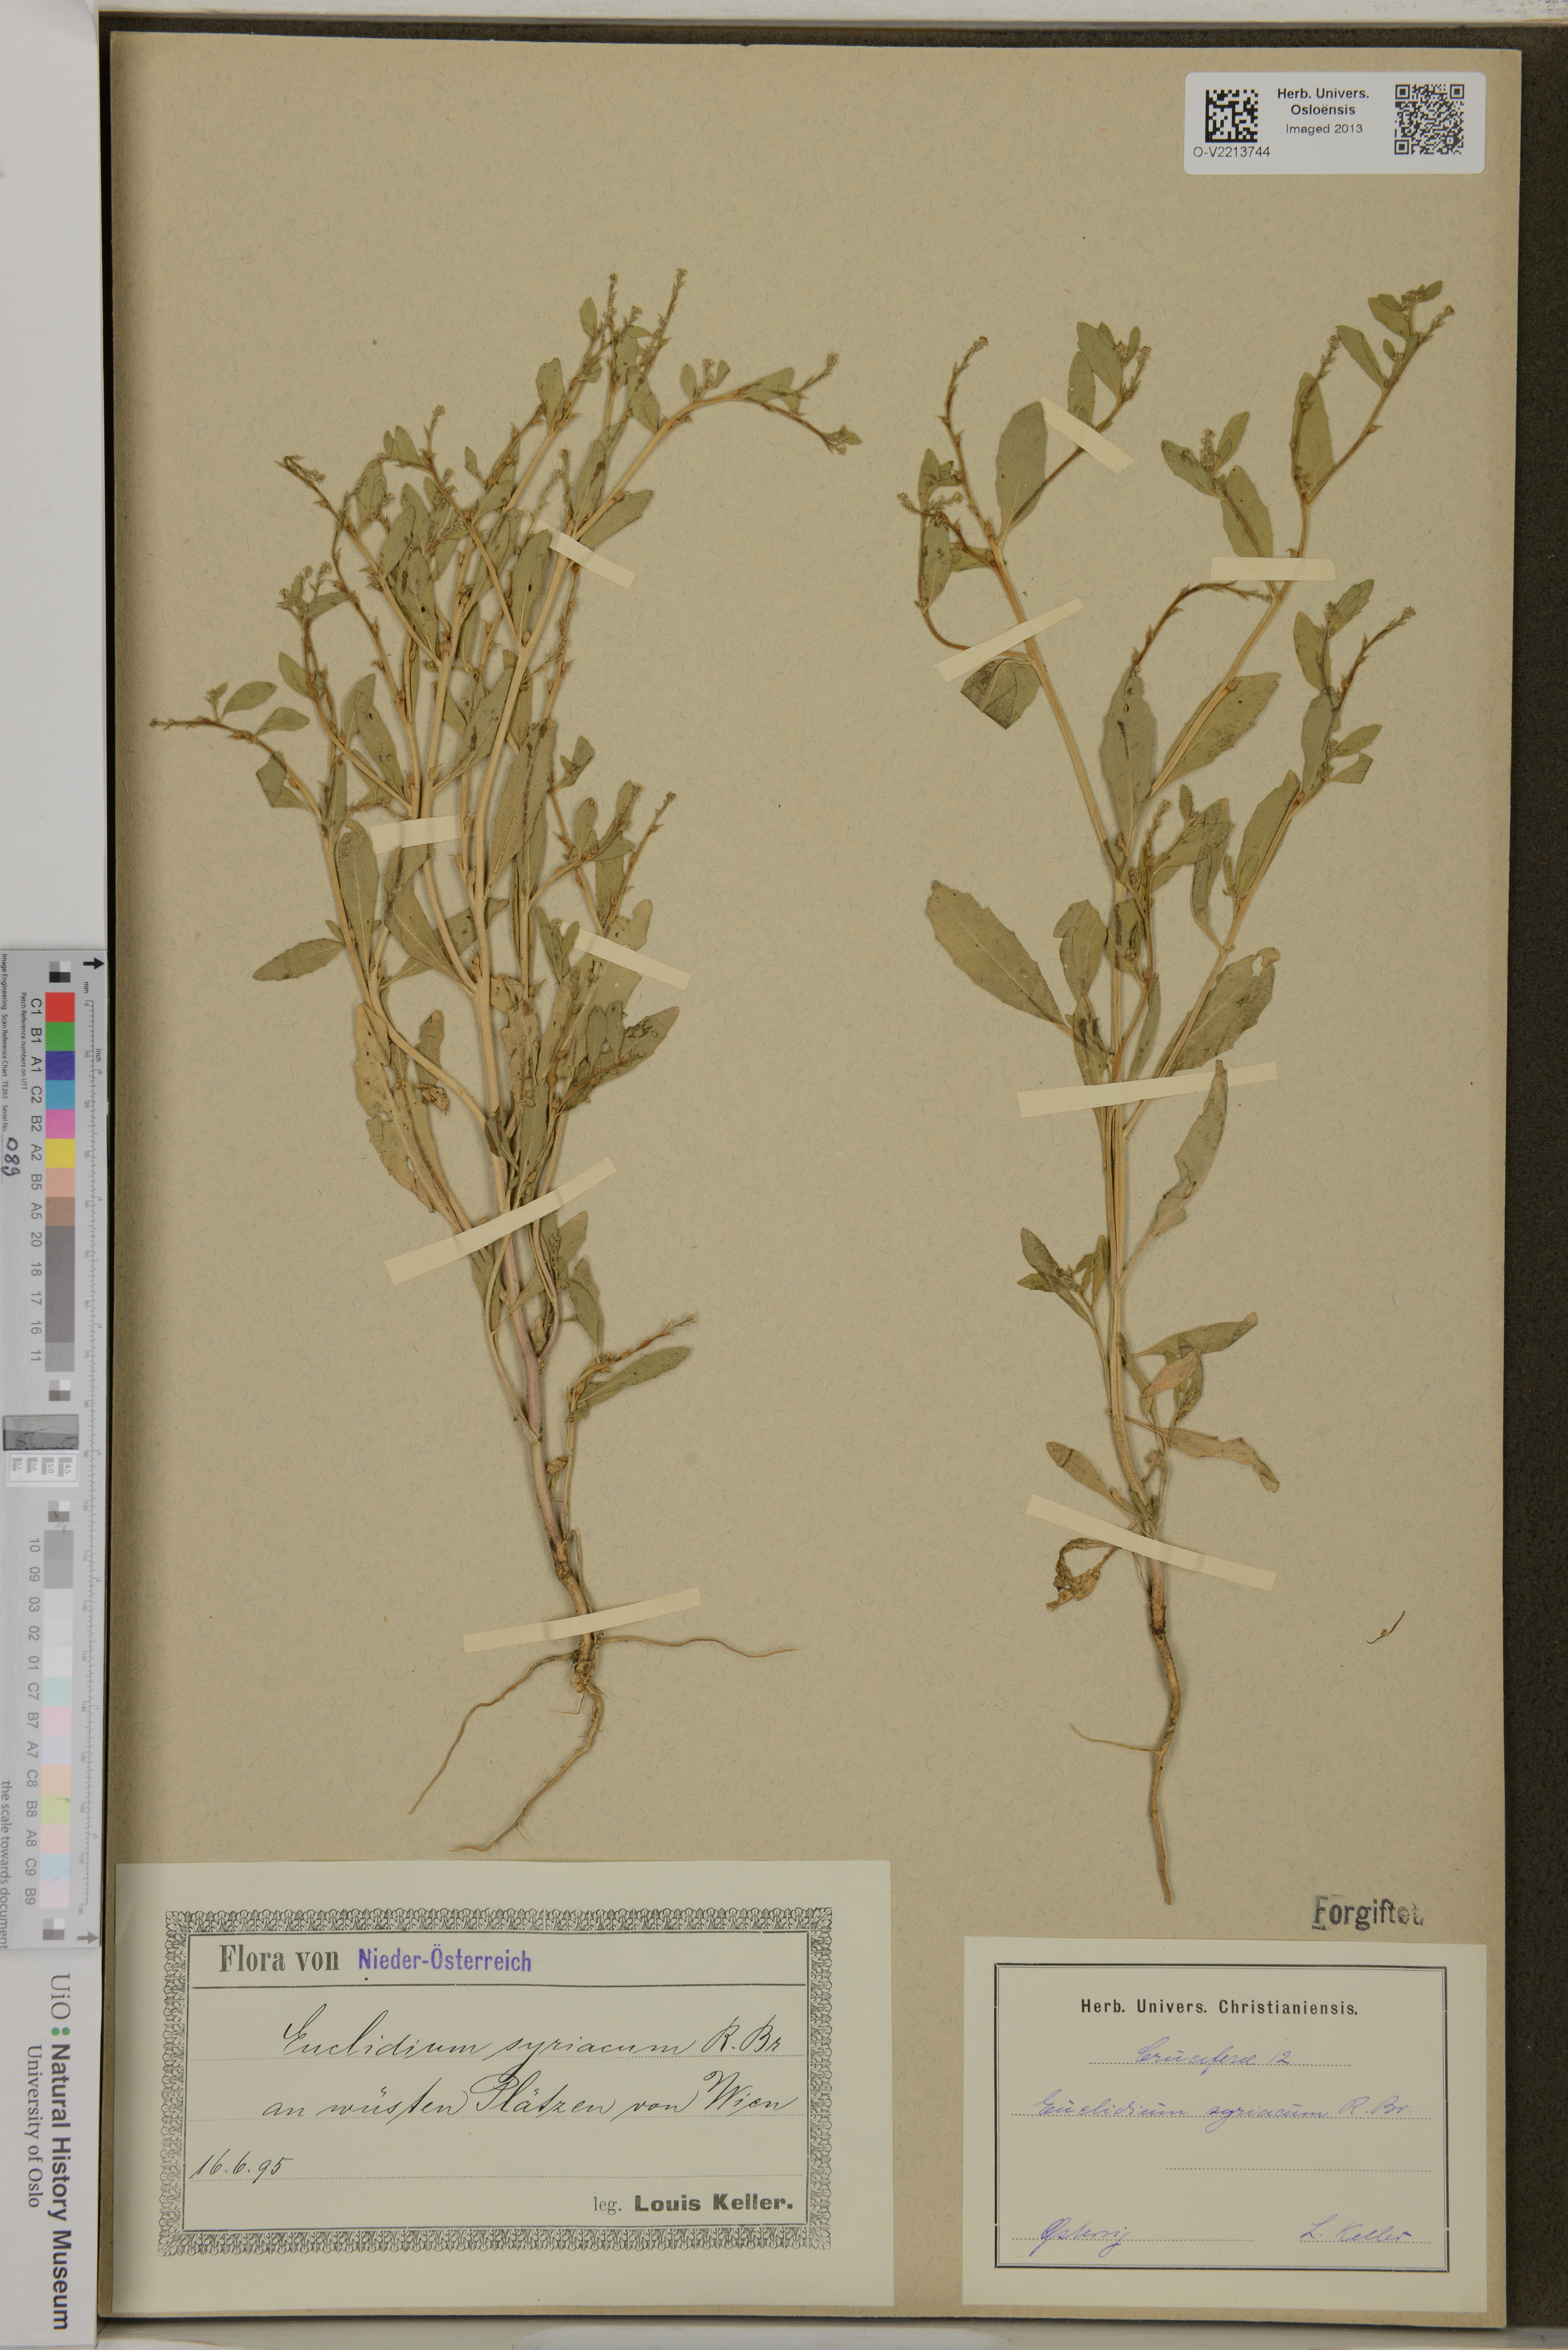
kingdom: Plantae
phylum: Tracheophyta
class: Magnoliopsida
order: Brassicales
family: Brassicaceae
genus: Euclidium
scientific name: Euclidium syriacum
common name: Syrian mustard
